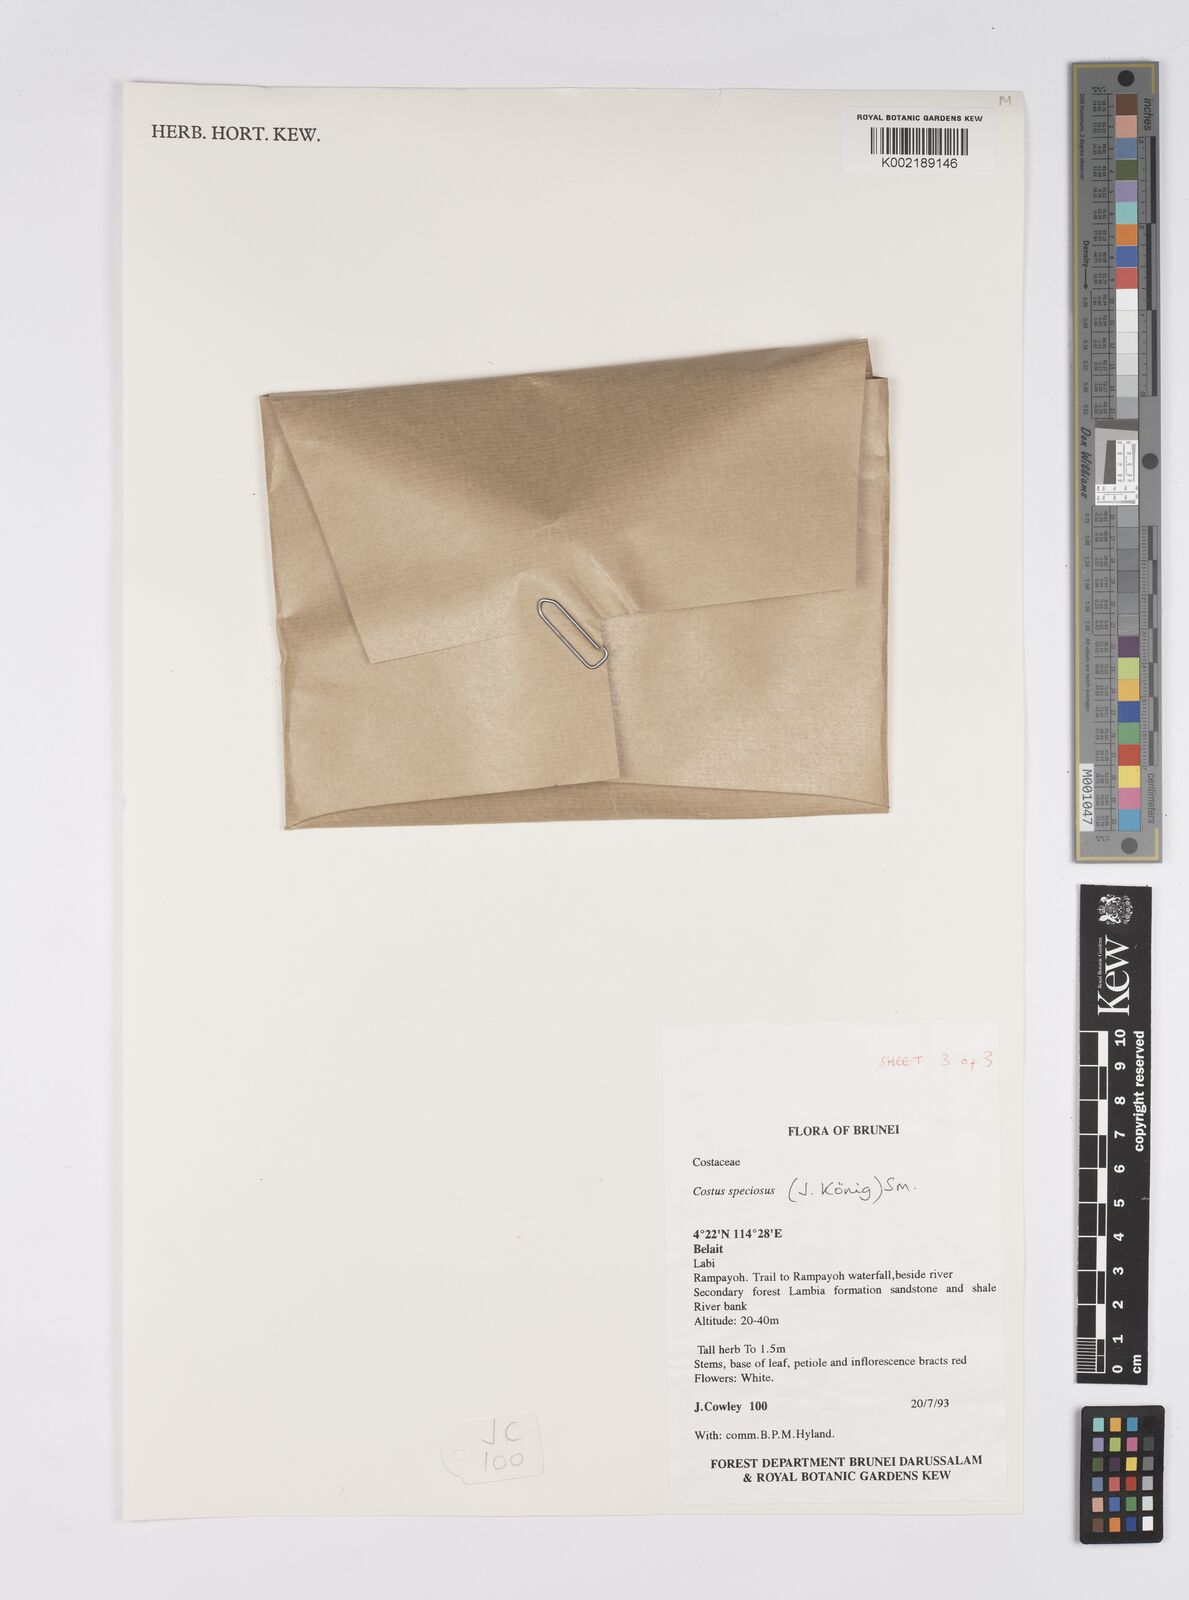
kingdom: Plantae
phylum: Tracheophyta
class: Liliopsida
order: Zingiberales
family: Costaceae
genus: Hellenia
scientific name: Hellenia speciosa
